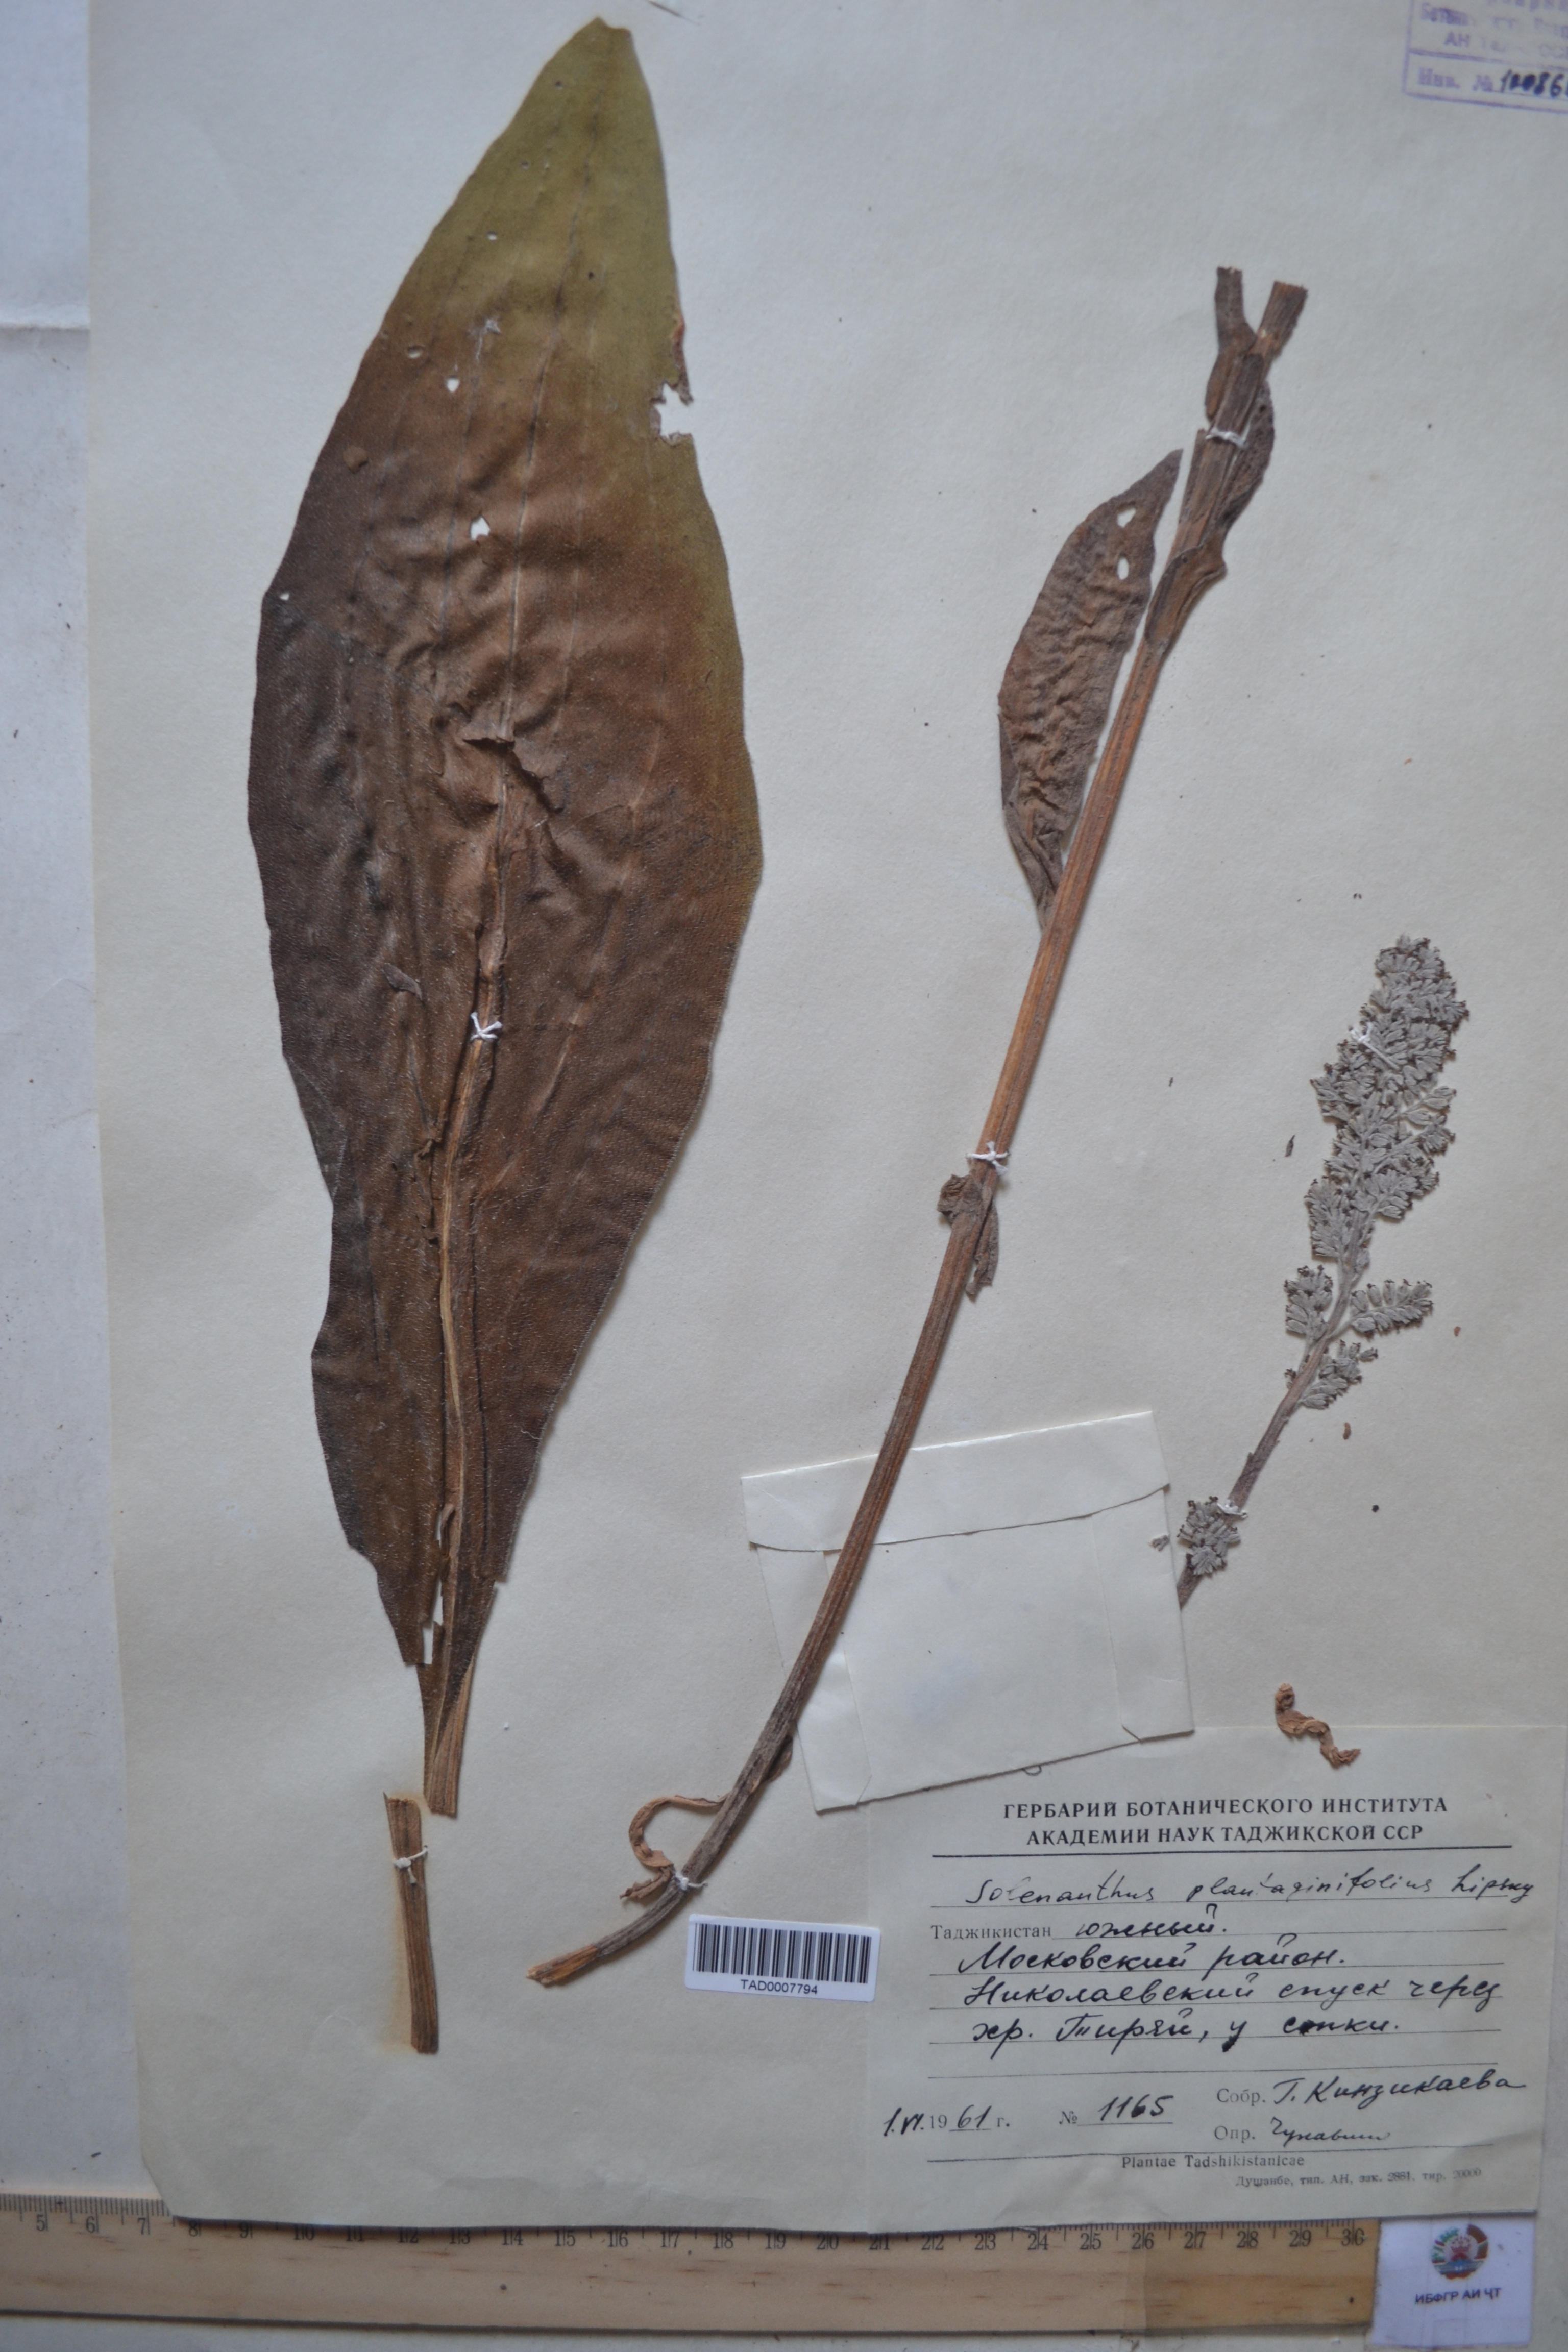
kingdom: Plantae
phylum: Tracheophyta
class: Magnoliopsida
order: Boraginales
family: Boraginaceae
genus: Solenanthus
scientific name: Solenanthus plantaginifolius
